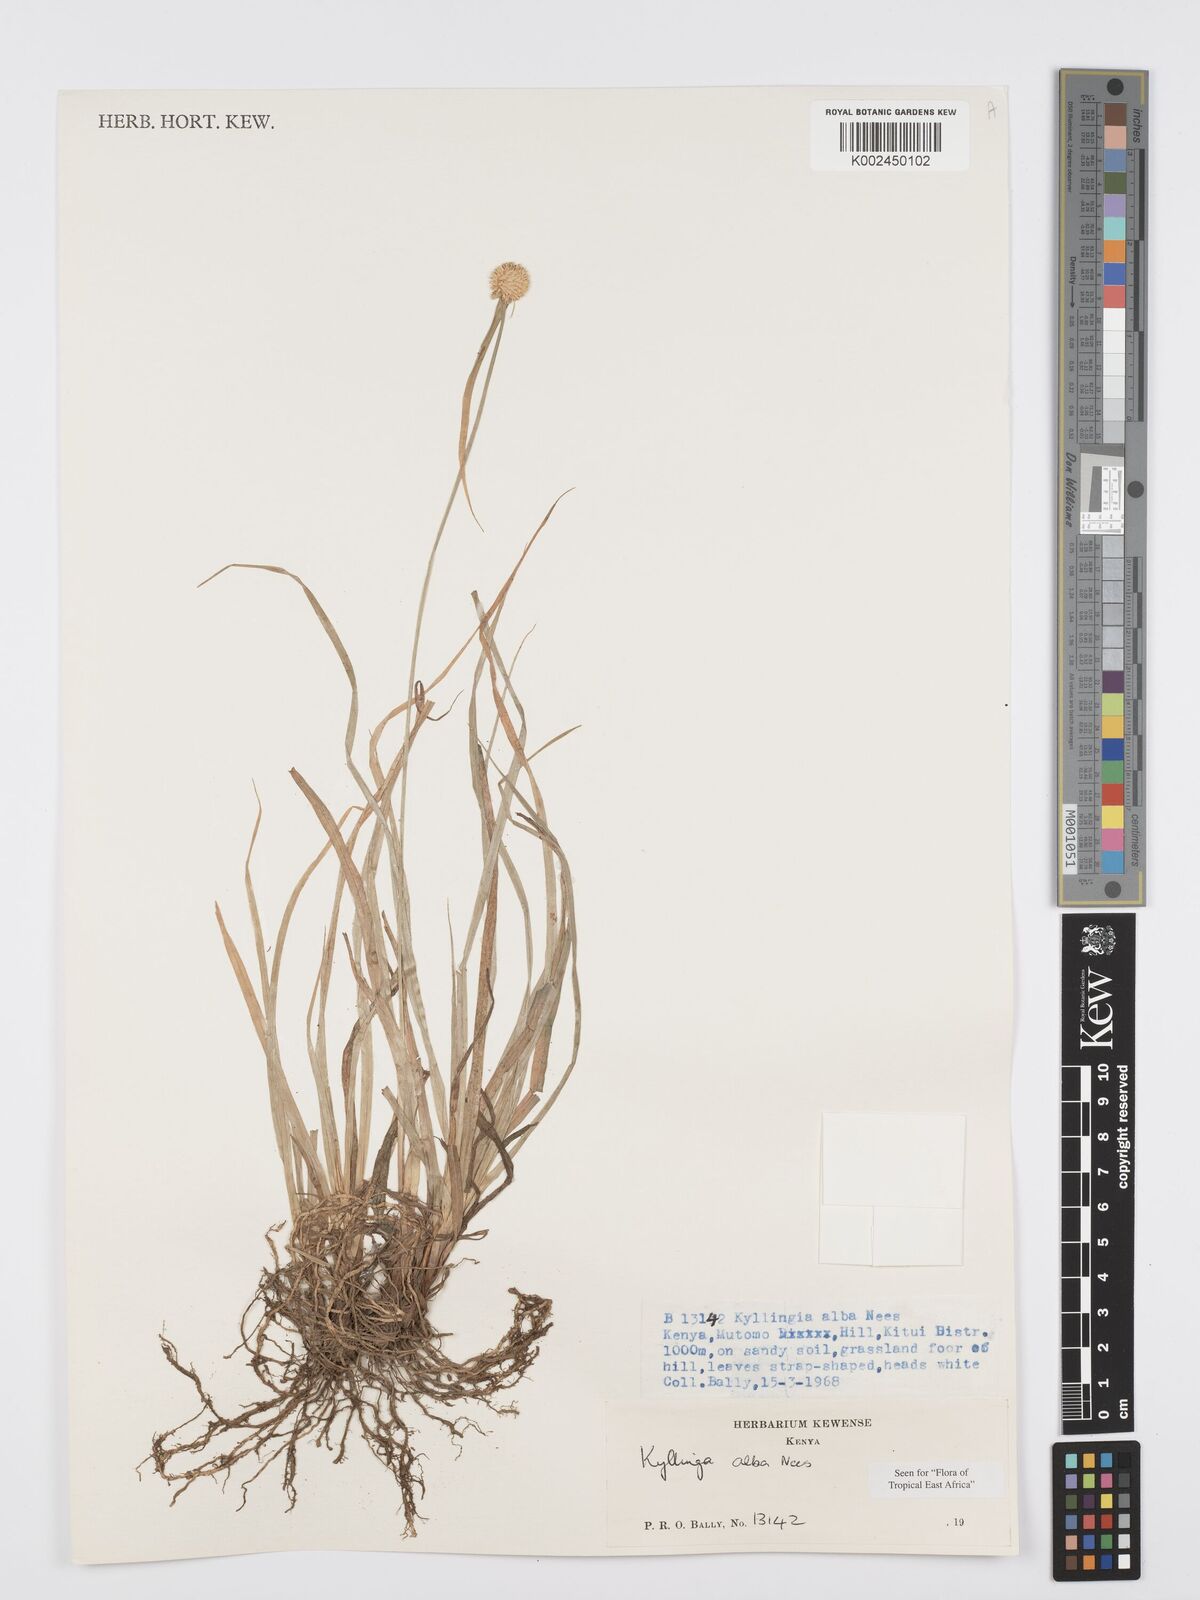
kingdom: Plantae
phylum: Tracheophyta
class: Liliopsida
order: Poales
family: Cyperaceae
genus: Cyperus
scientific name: Cyperus
